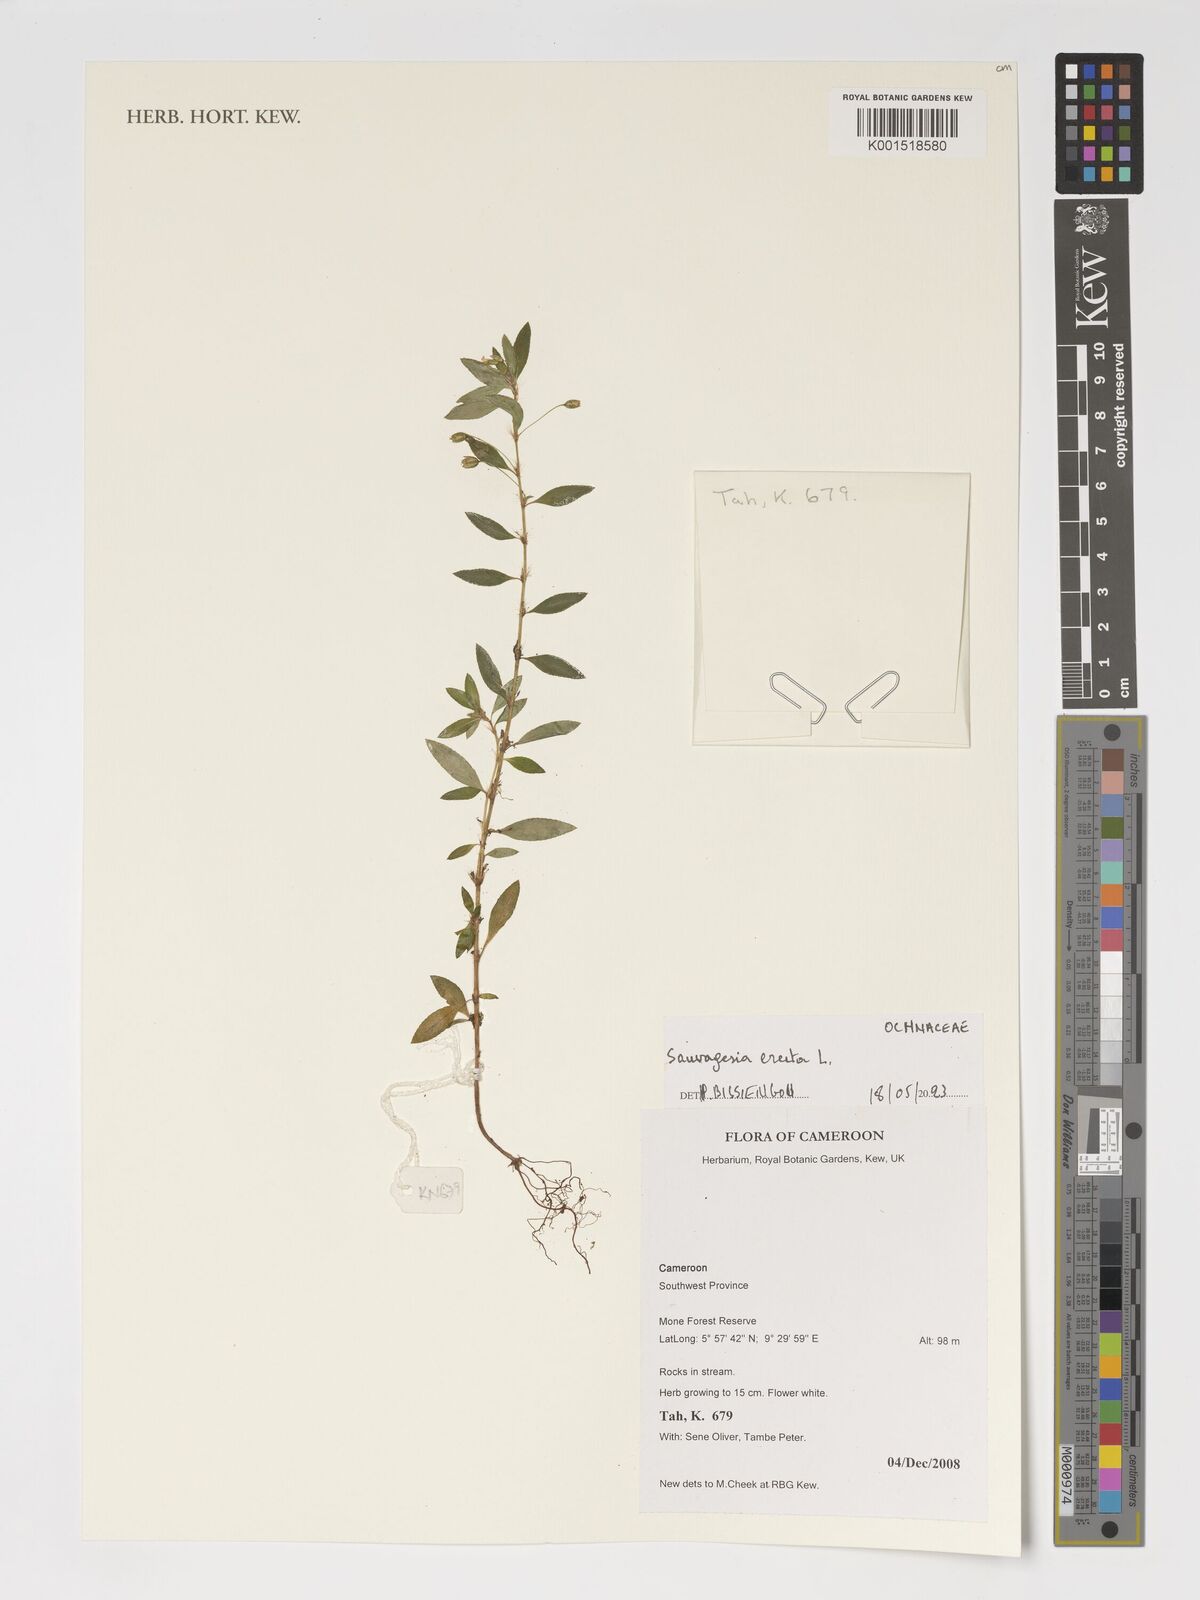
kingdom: Plantae
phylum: Tracheophyta
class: Magnoliopsida
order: Malpighiales
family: Ochnaceae
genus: Sauvagesia
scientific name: Sauvagesia erecta
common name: Creole tea
